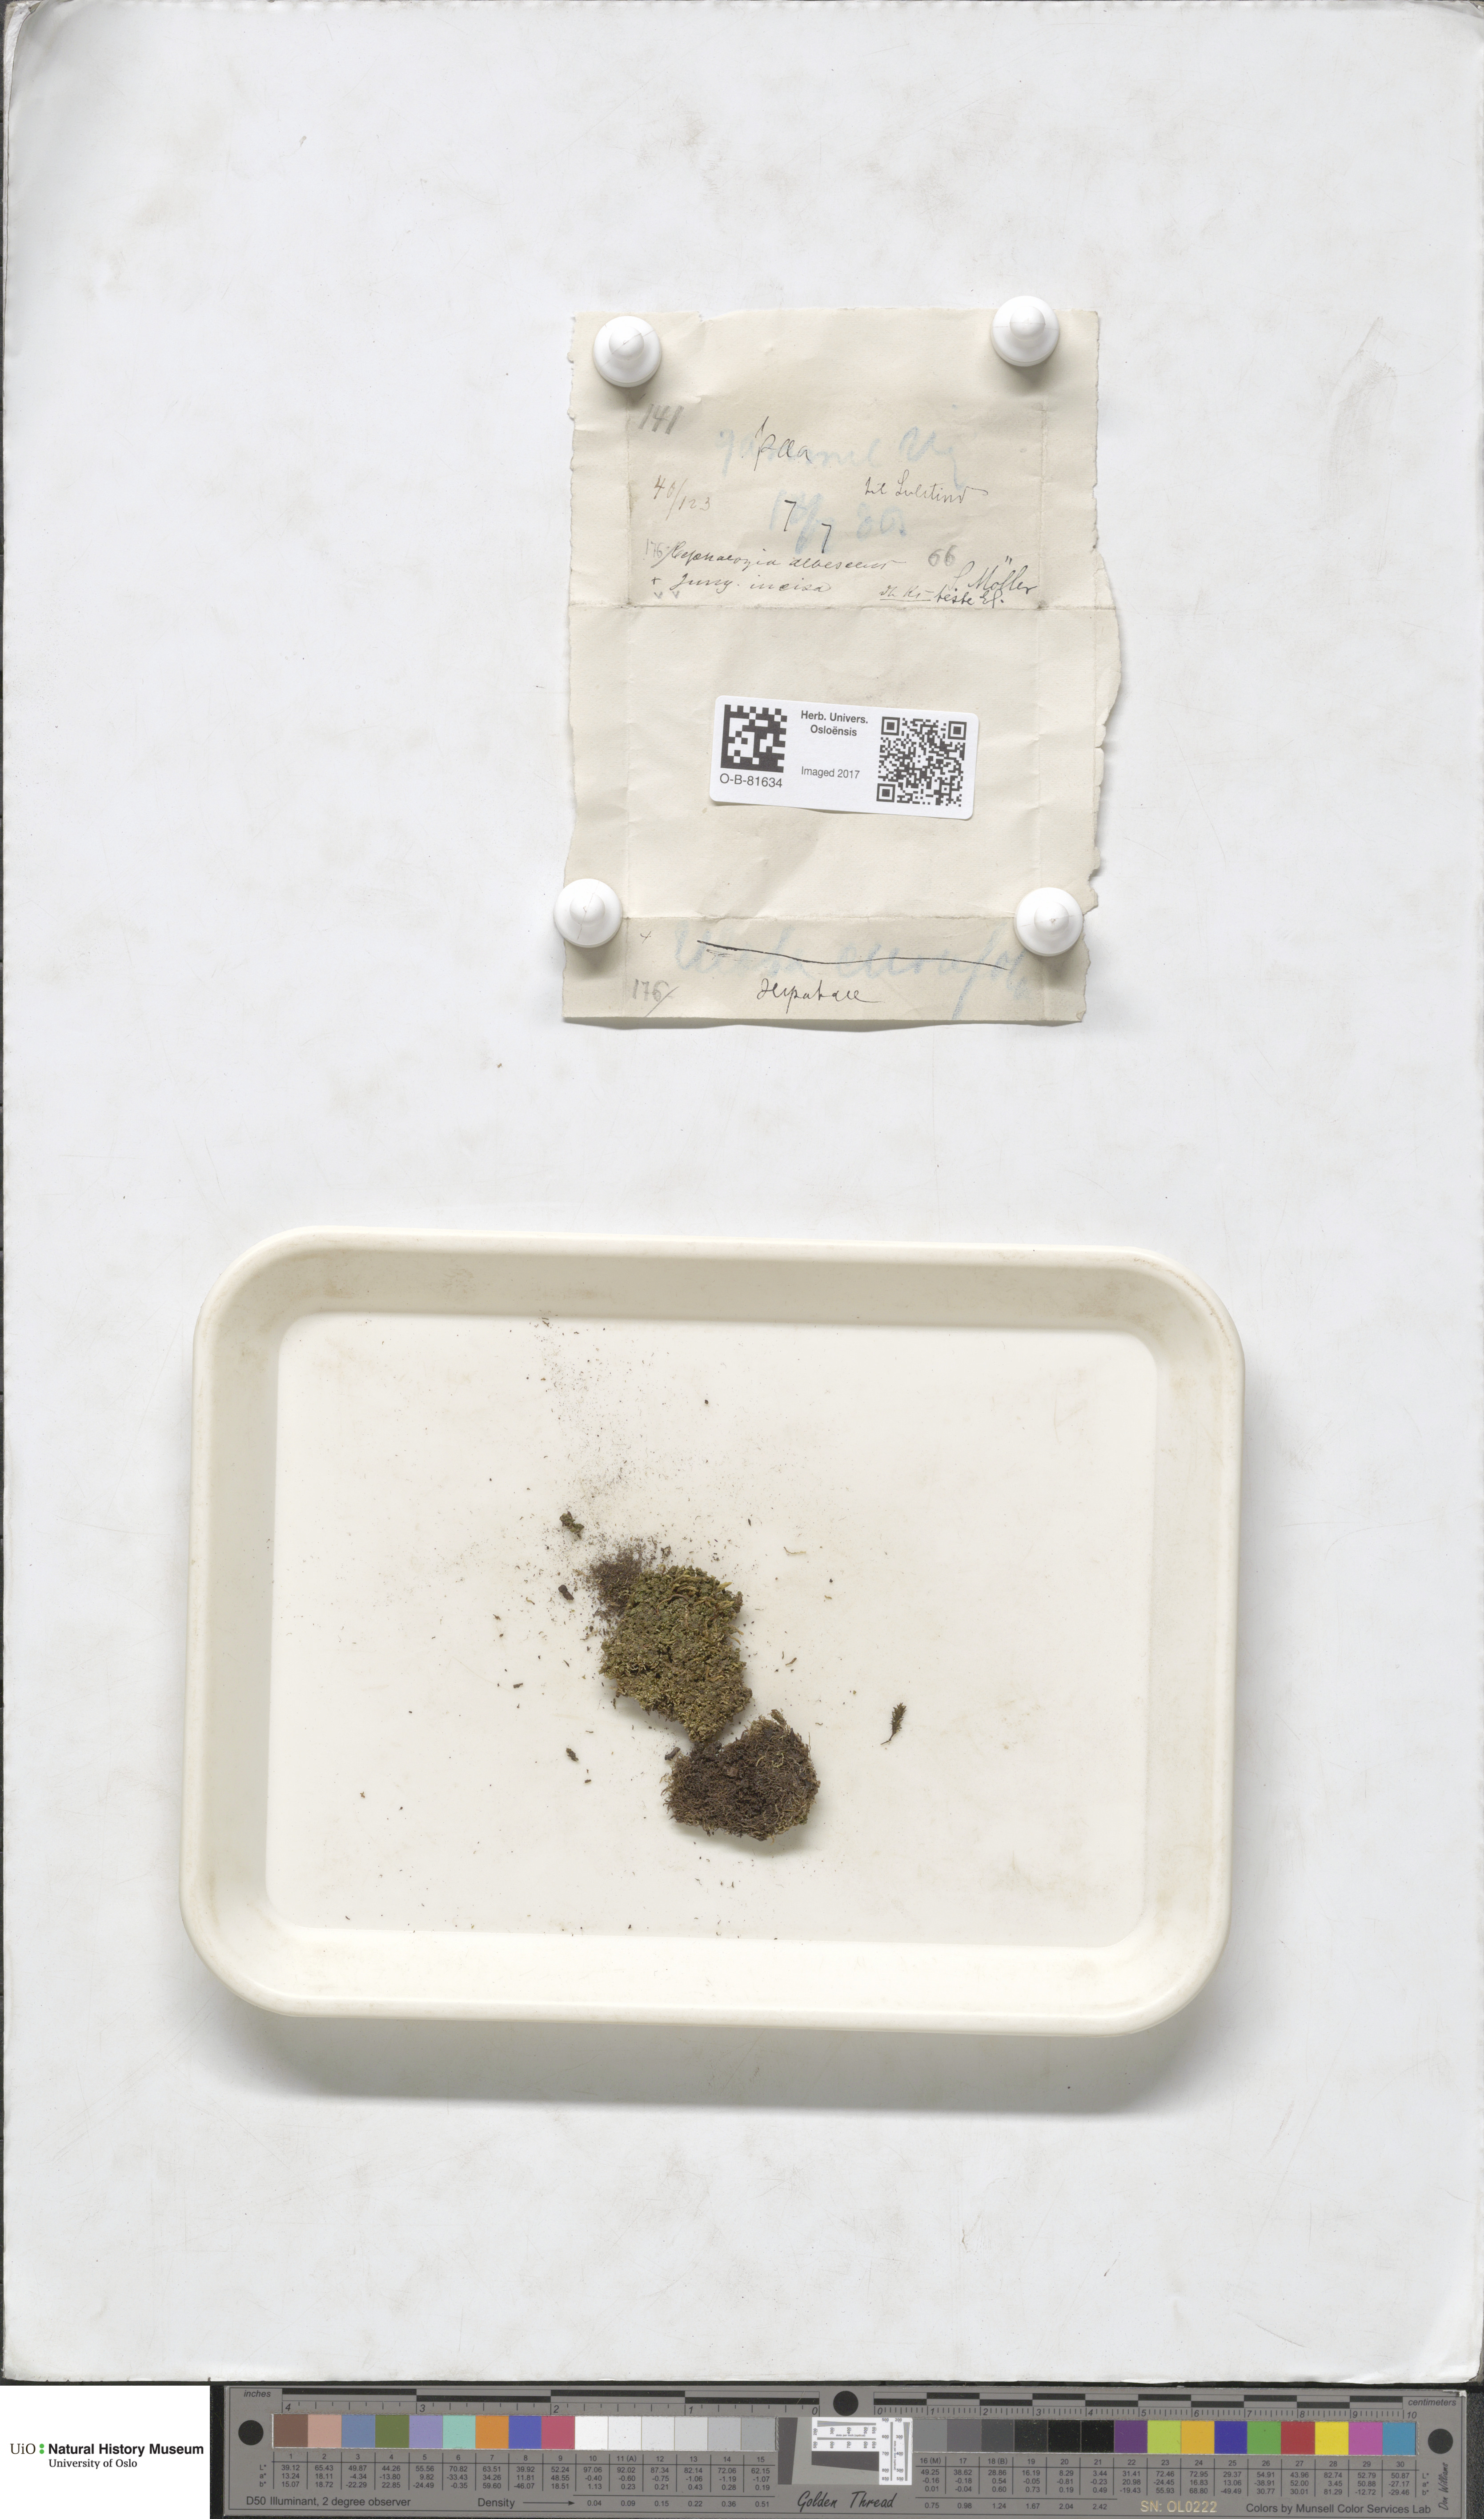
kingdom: Plantae
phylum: Marchantiophyta
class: Jungermanniopsida
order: Jungermanniales
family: Cephaloziaceae
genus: Fuscocephaloziopsis
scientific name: Fuscocephaloziopsis albescens
